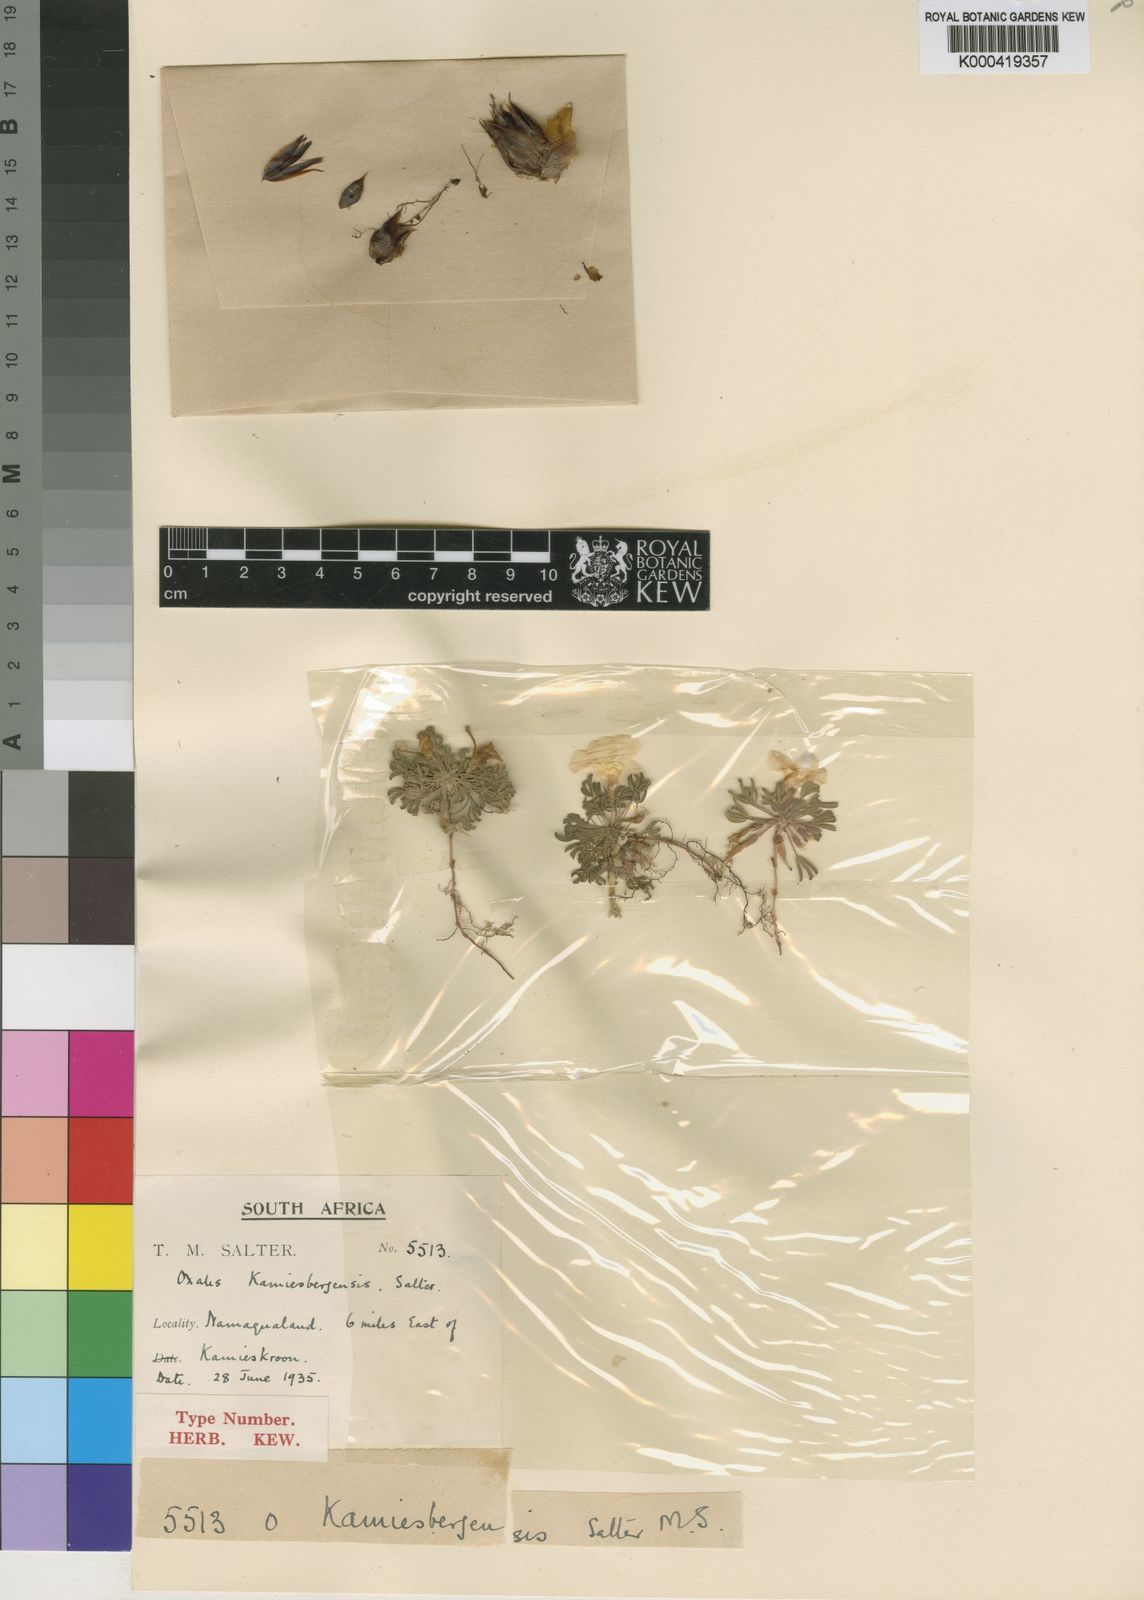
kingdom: Plantae
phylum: Tracheophyta
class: Magnoliopsida
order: Oxalidales
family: Oxalidaceae
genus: Oxalis
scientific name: Oxalis kamiesbergensis
